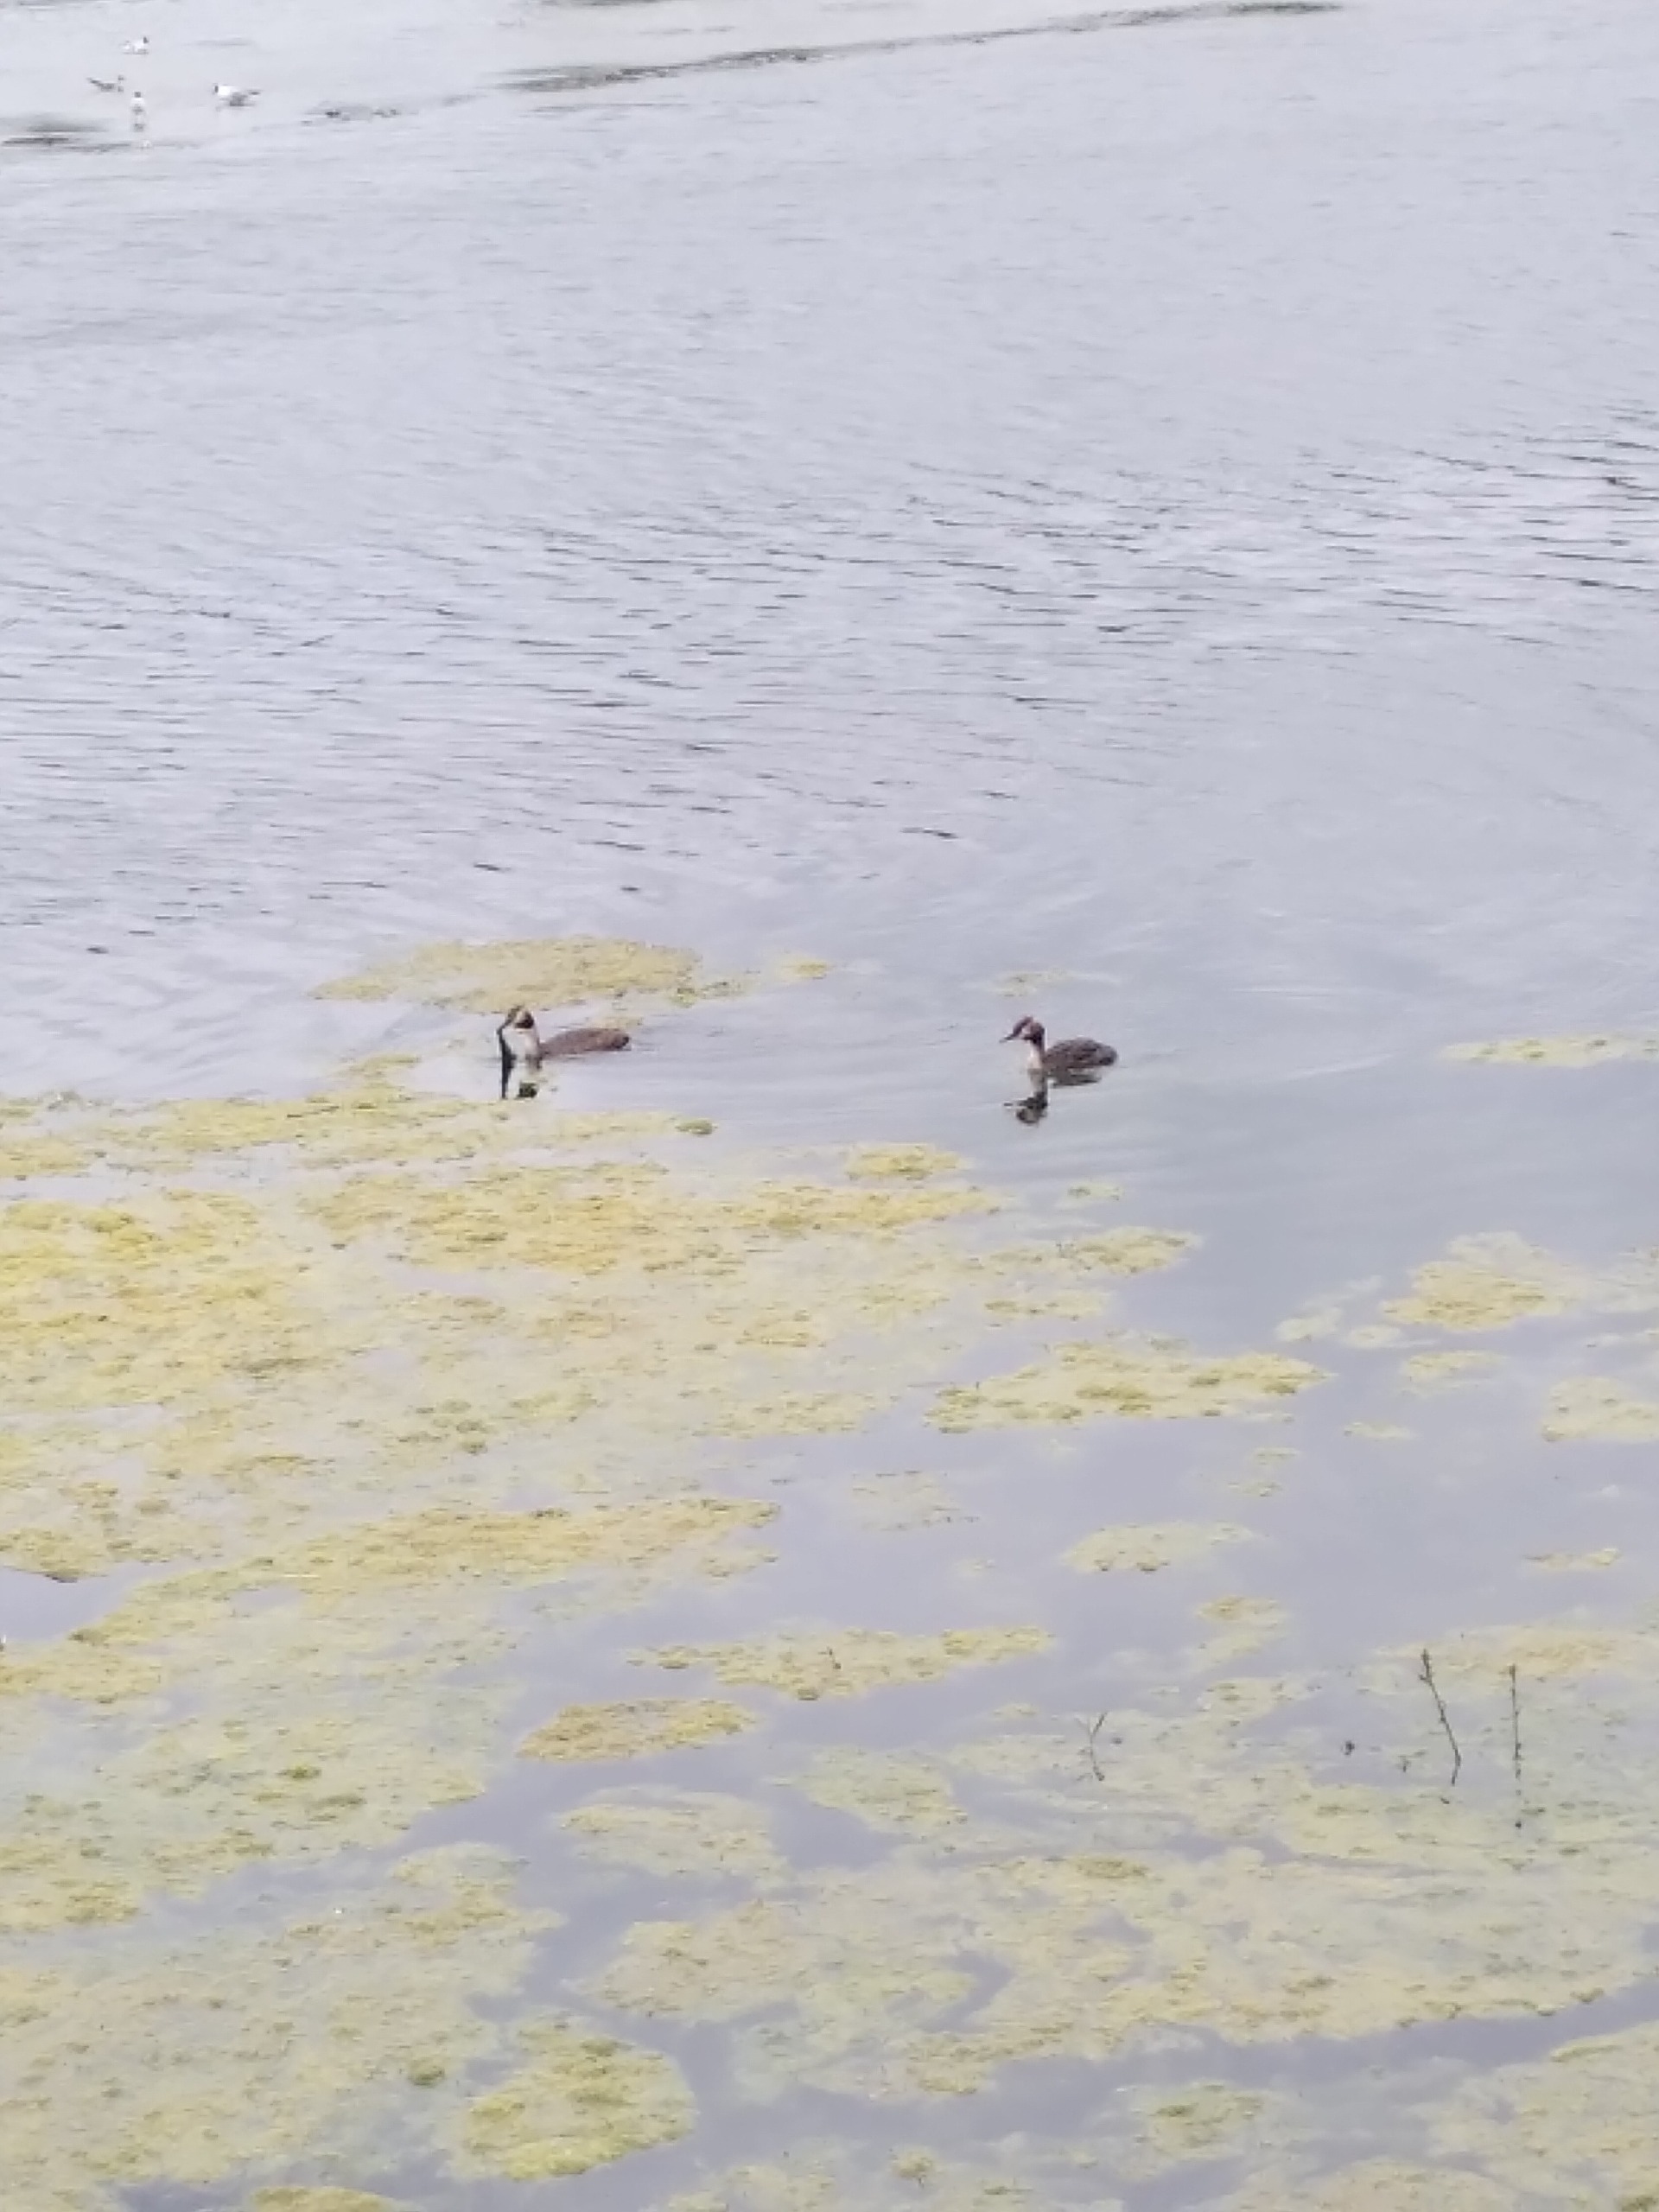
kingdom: Animalia
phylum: Chordata
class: Aves
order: Podicipediformes
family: Podicipedidae
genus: Podiceps
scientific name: Podiceps cristatus
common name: Toppet lappedykker
